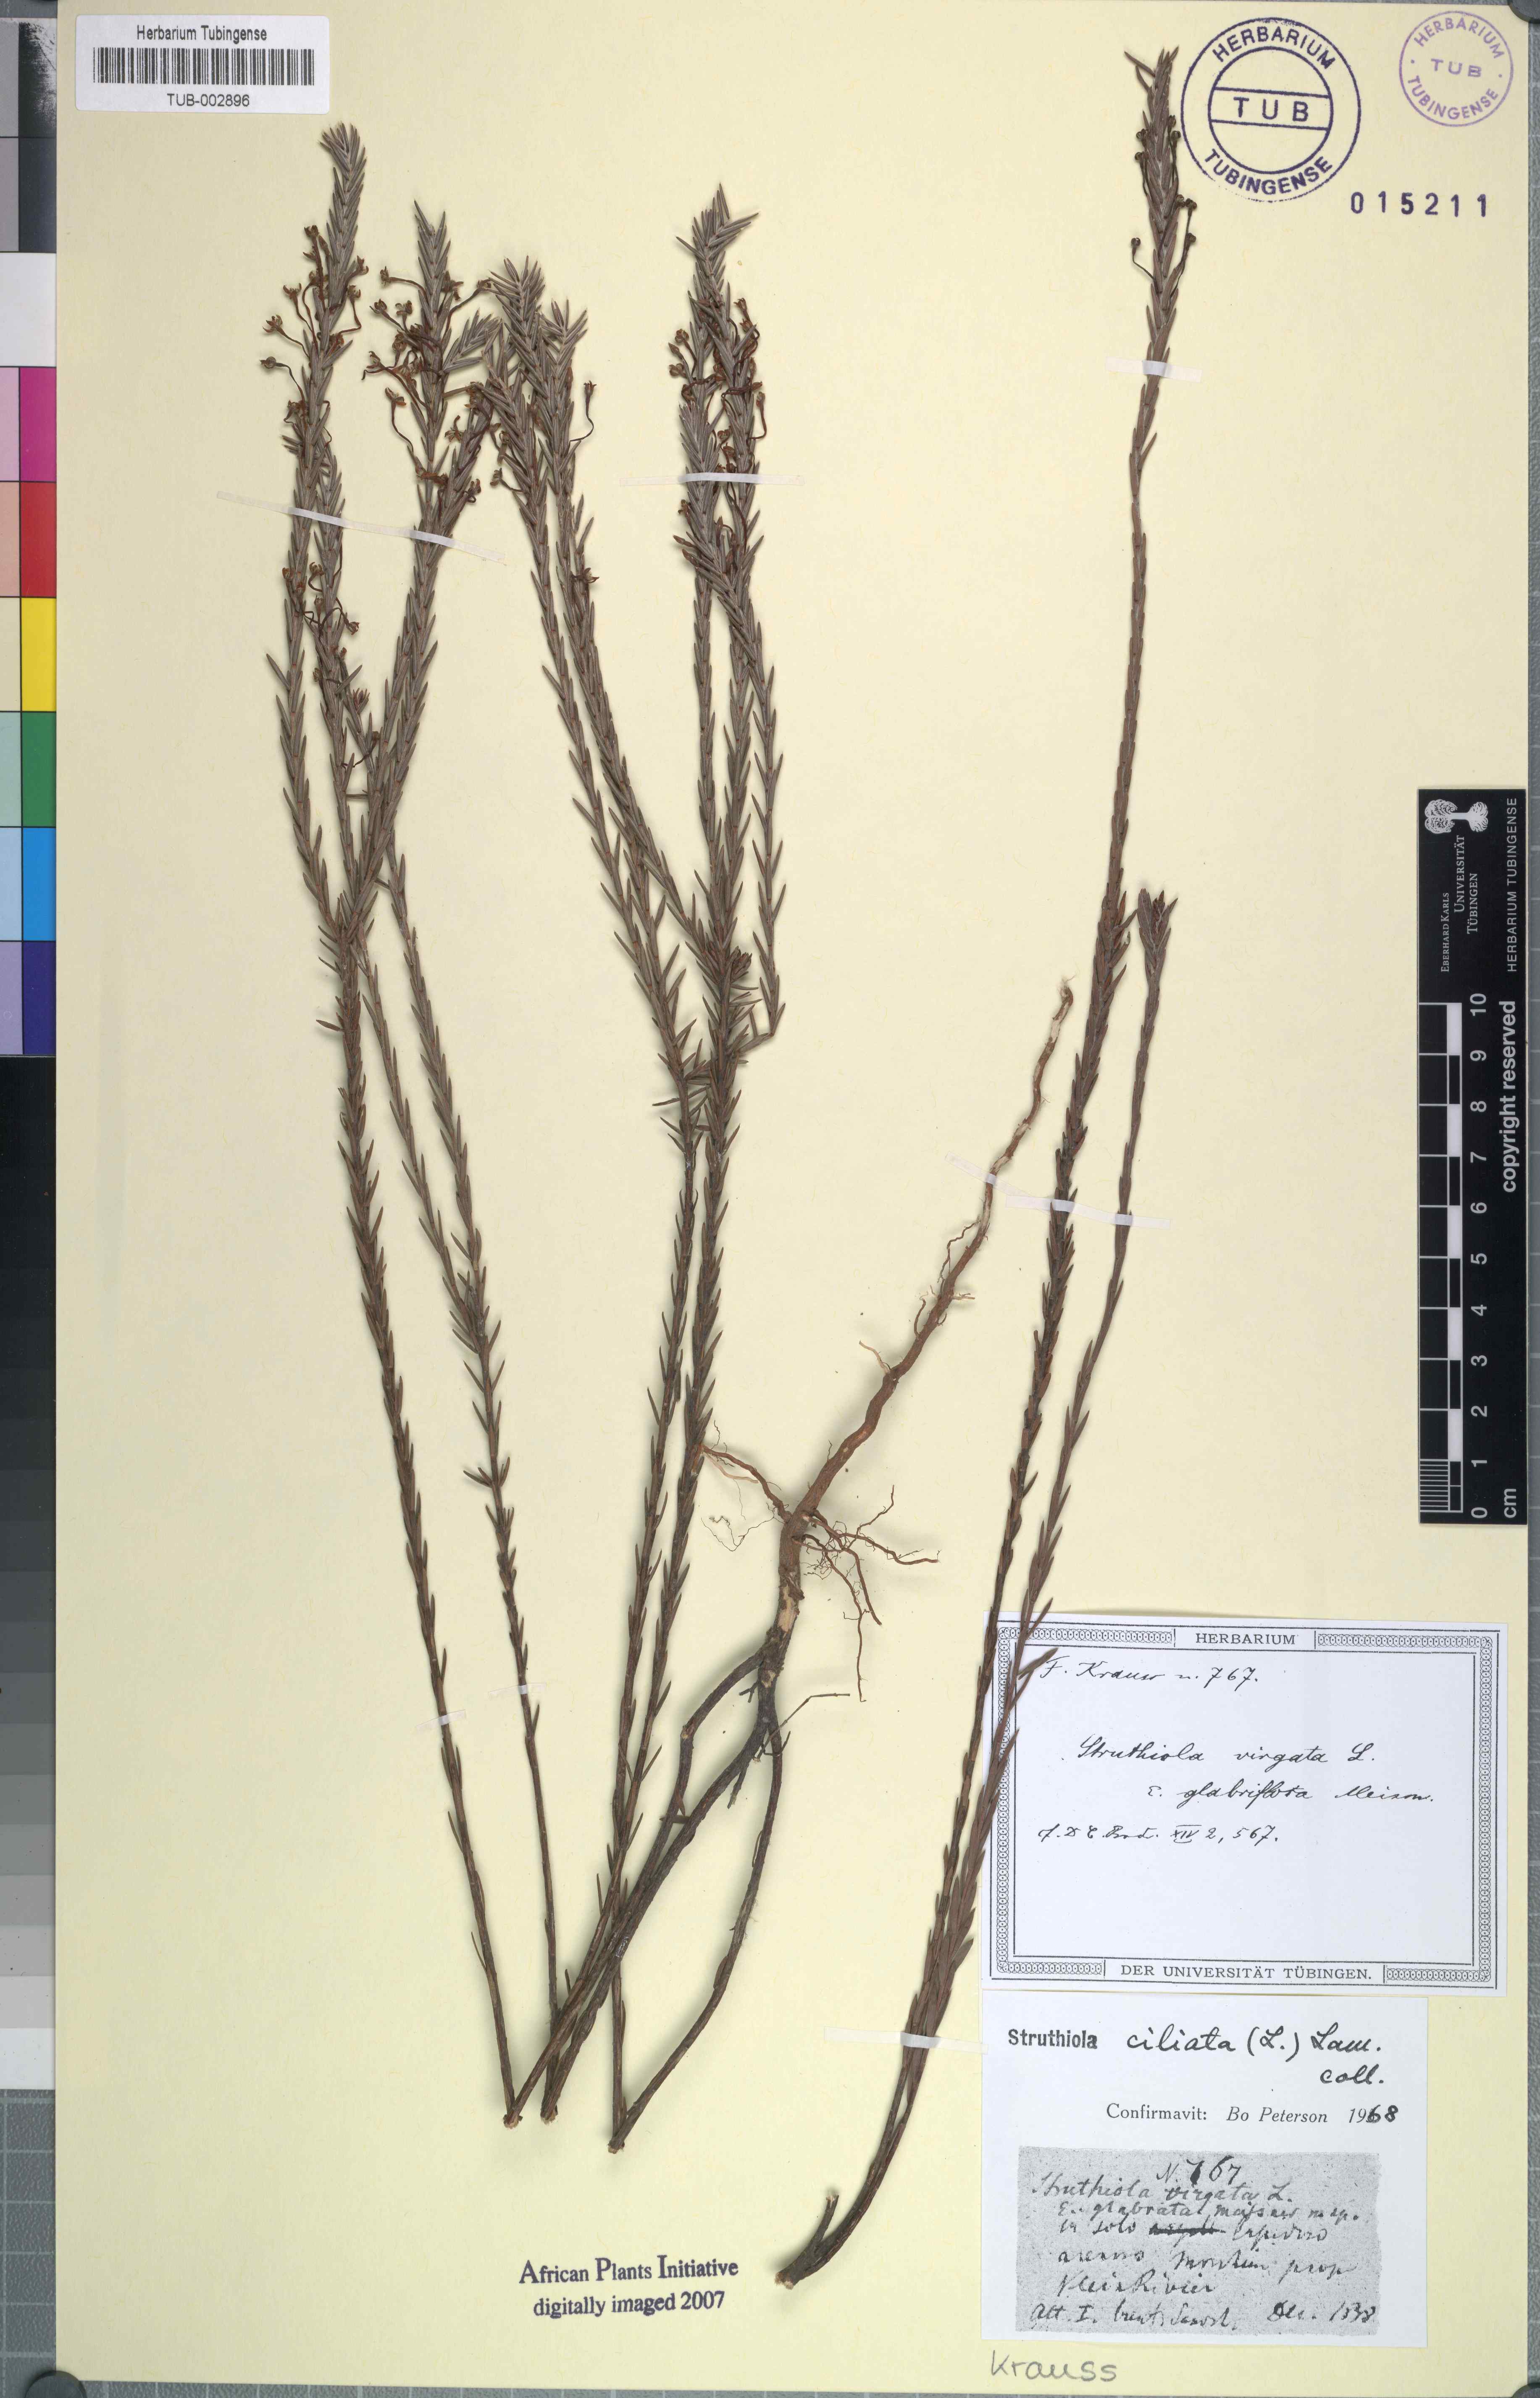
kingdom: Plantae
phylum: Tracheophyta
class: Magnoliopsida
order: Malvales
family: Thymelaeaceae
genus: Struthiola
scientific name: Struthiola ciliata
